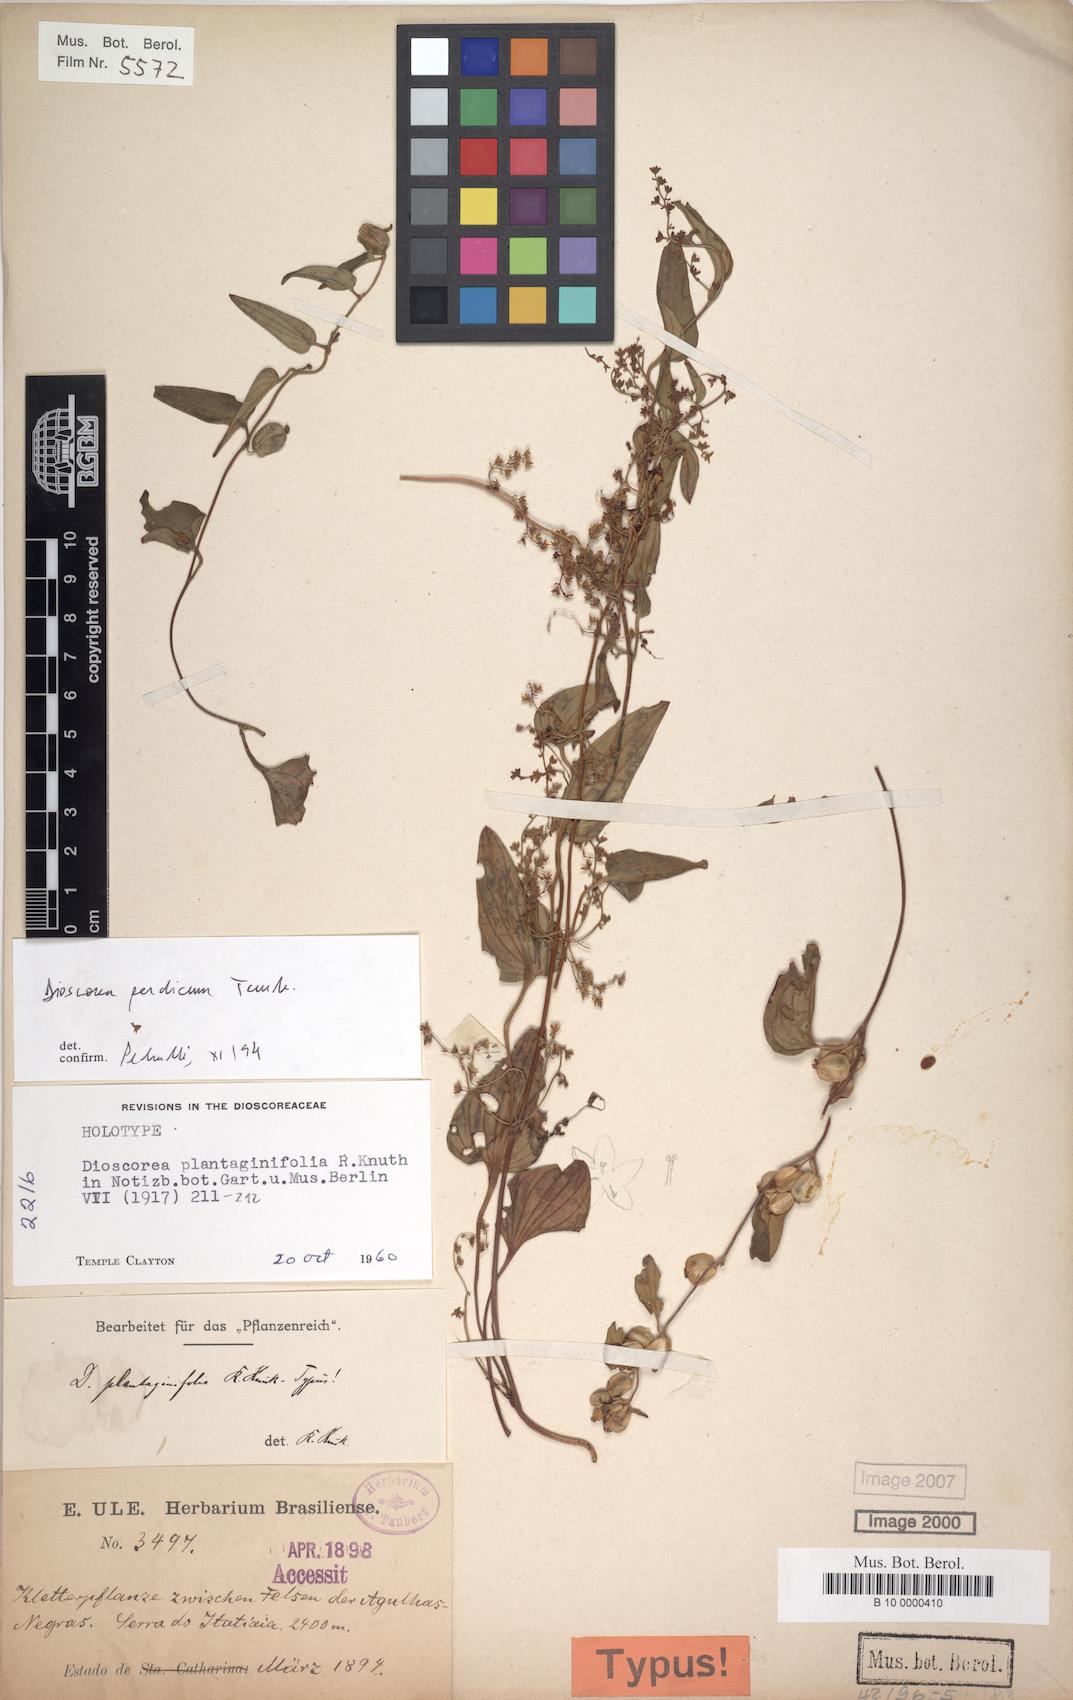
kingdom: Plantae
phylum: Tracheophyta
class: Liliopsida
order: Dioscoreales
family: Dioscoreaceae
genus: Dioscorea
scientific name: Dioscorea perdicum
